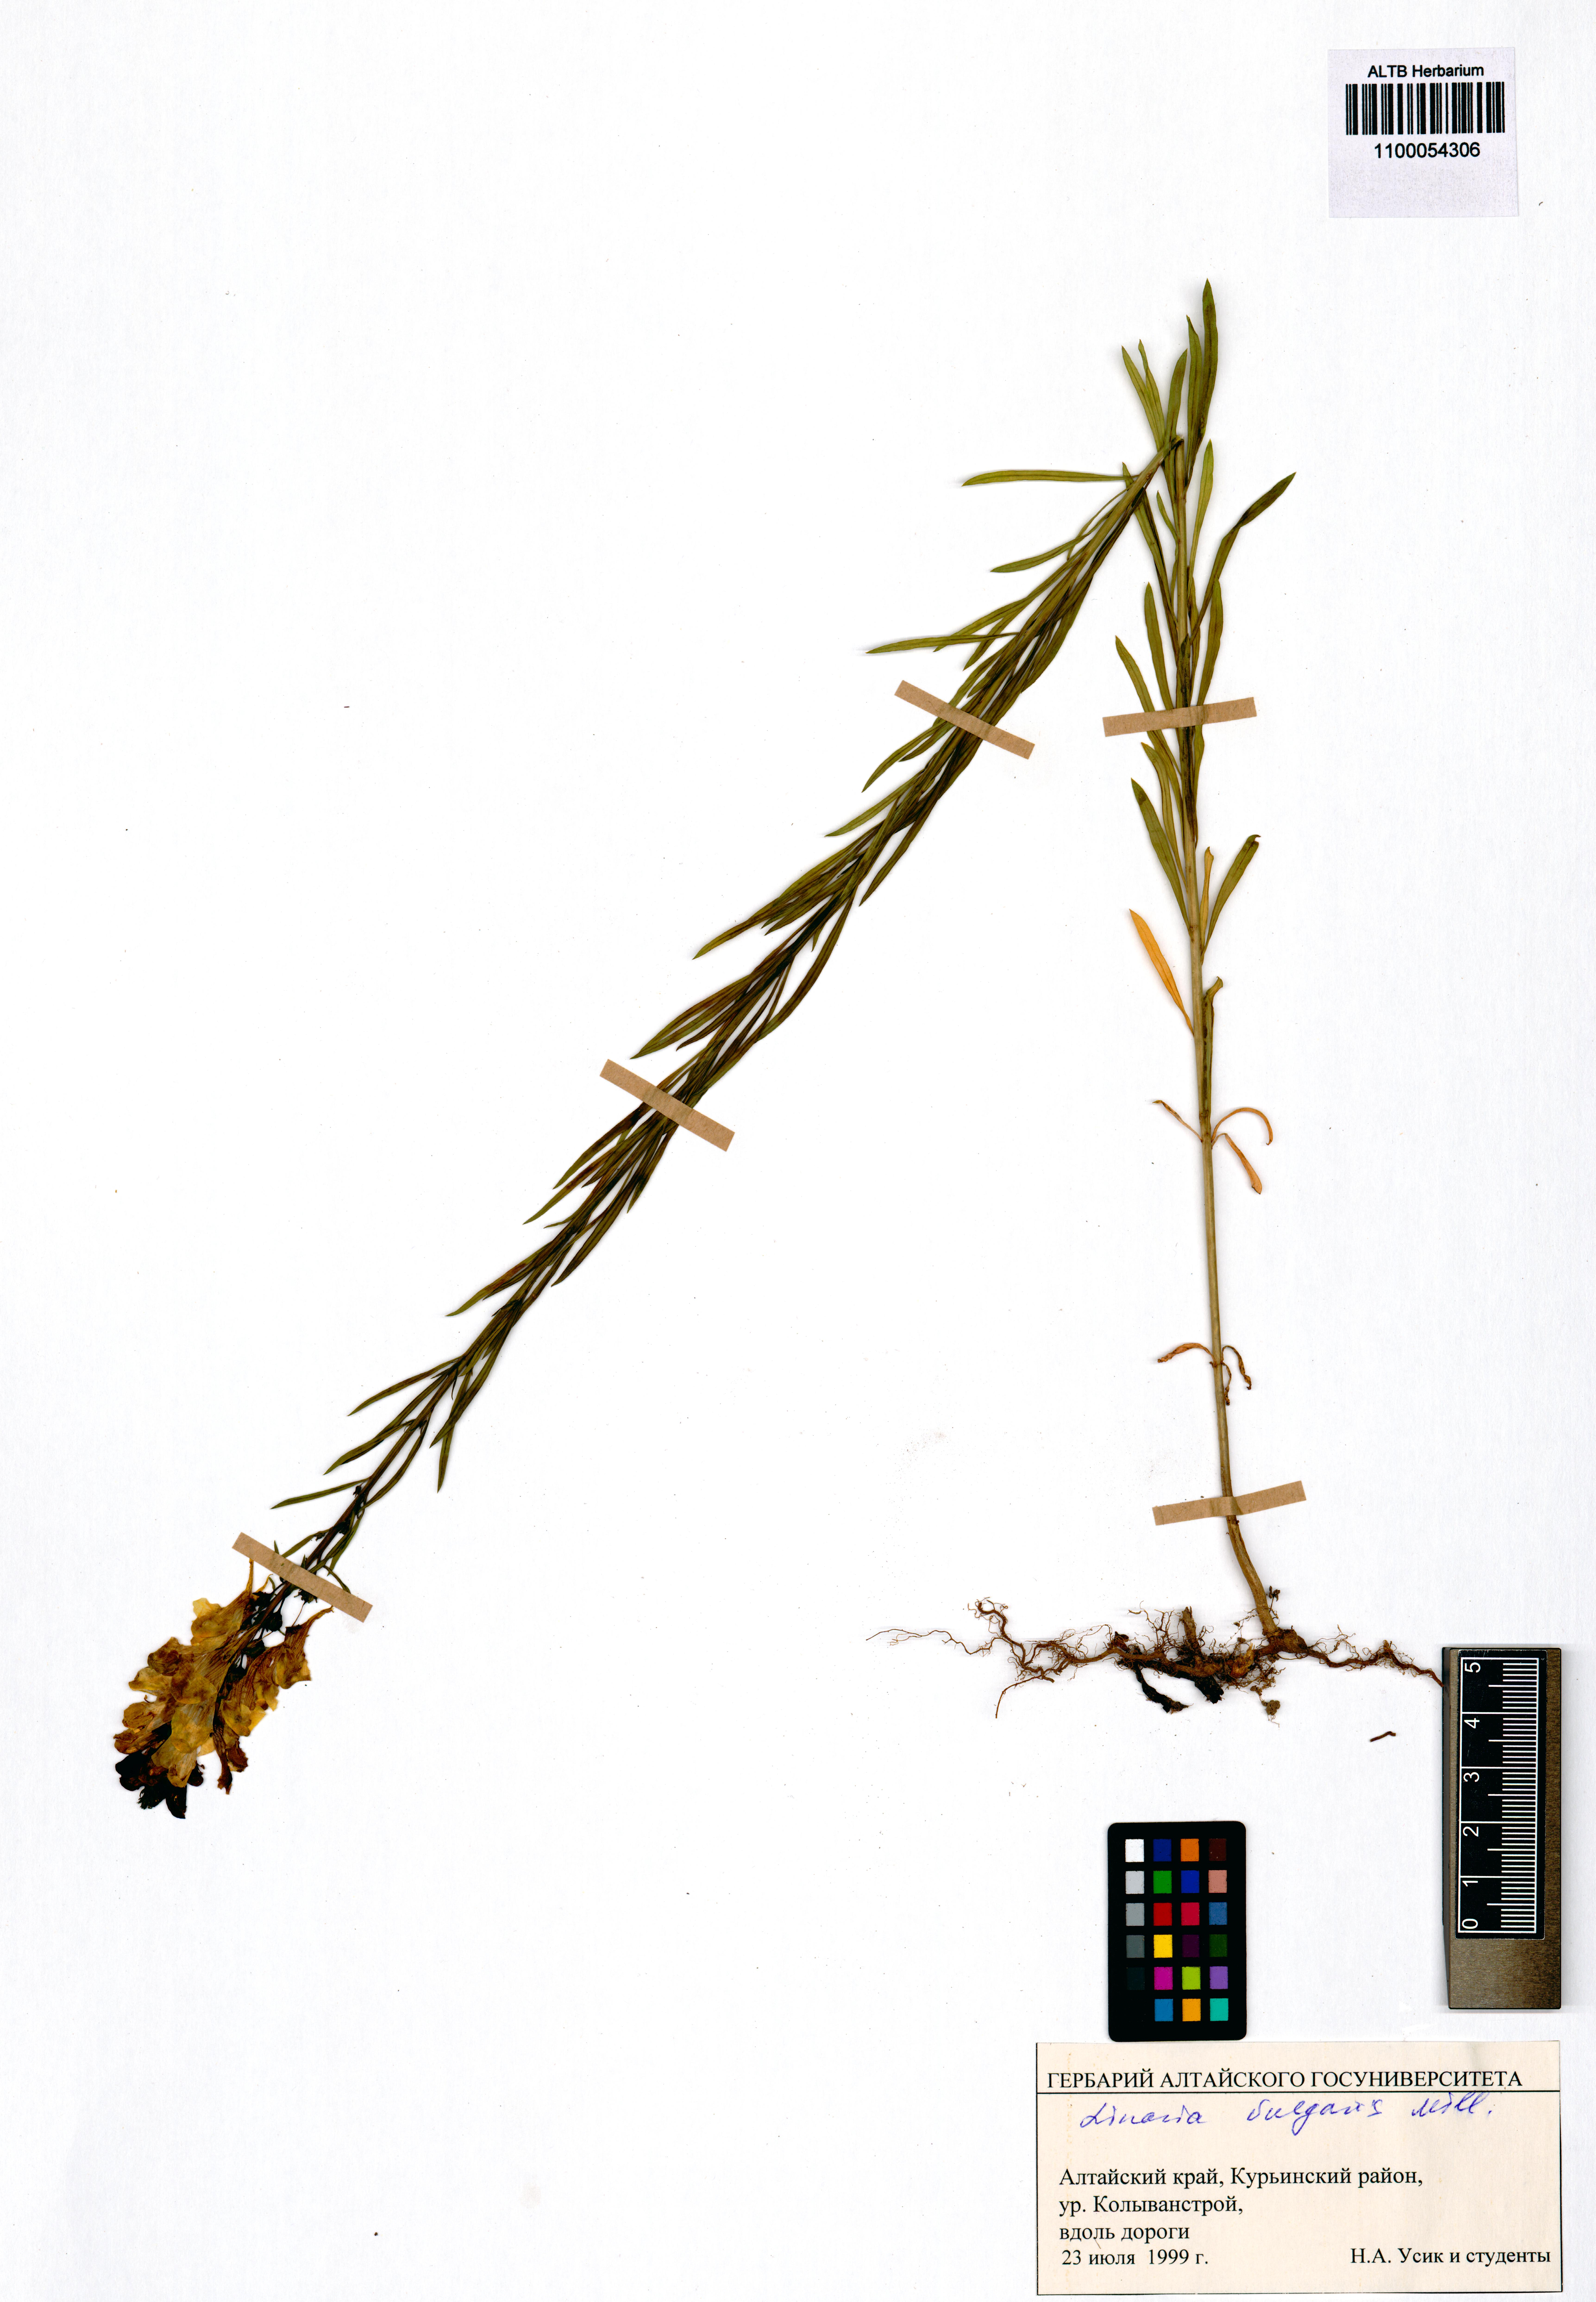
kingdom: Plantae
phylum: Tracheophyta
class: Magnoliopsida
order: Lamiales
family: Plantaginaceae
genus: Linaria
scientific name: Linaria vulgaris
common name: Butter and eggs
